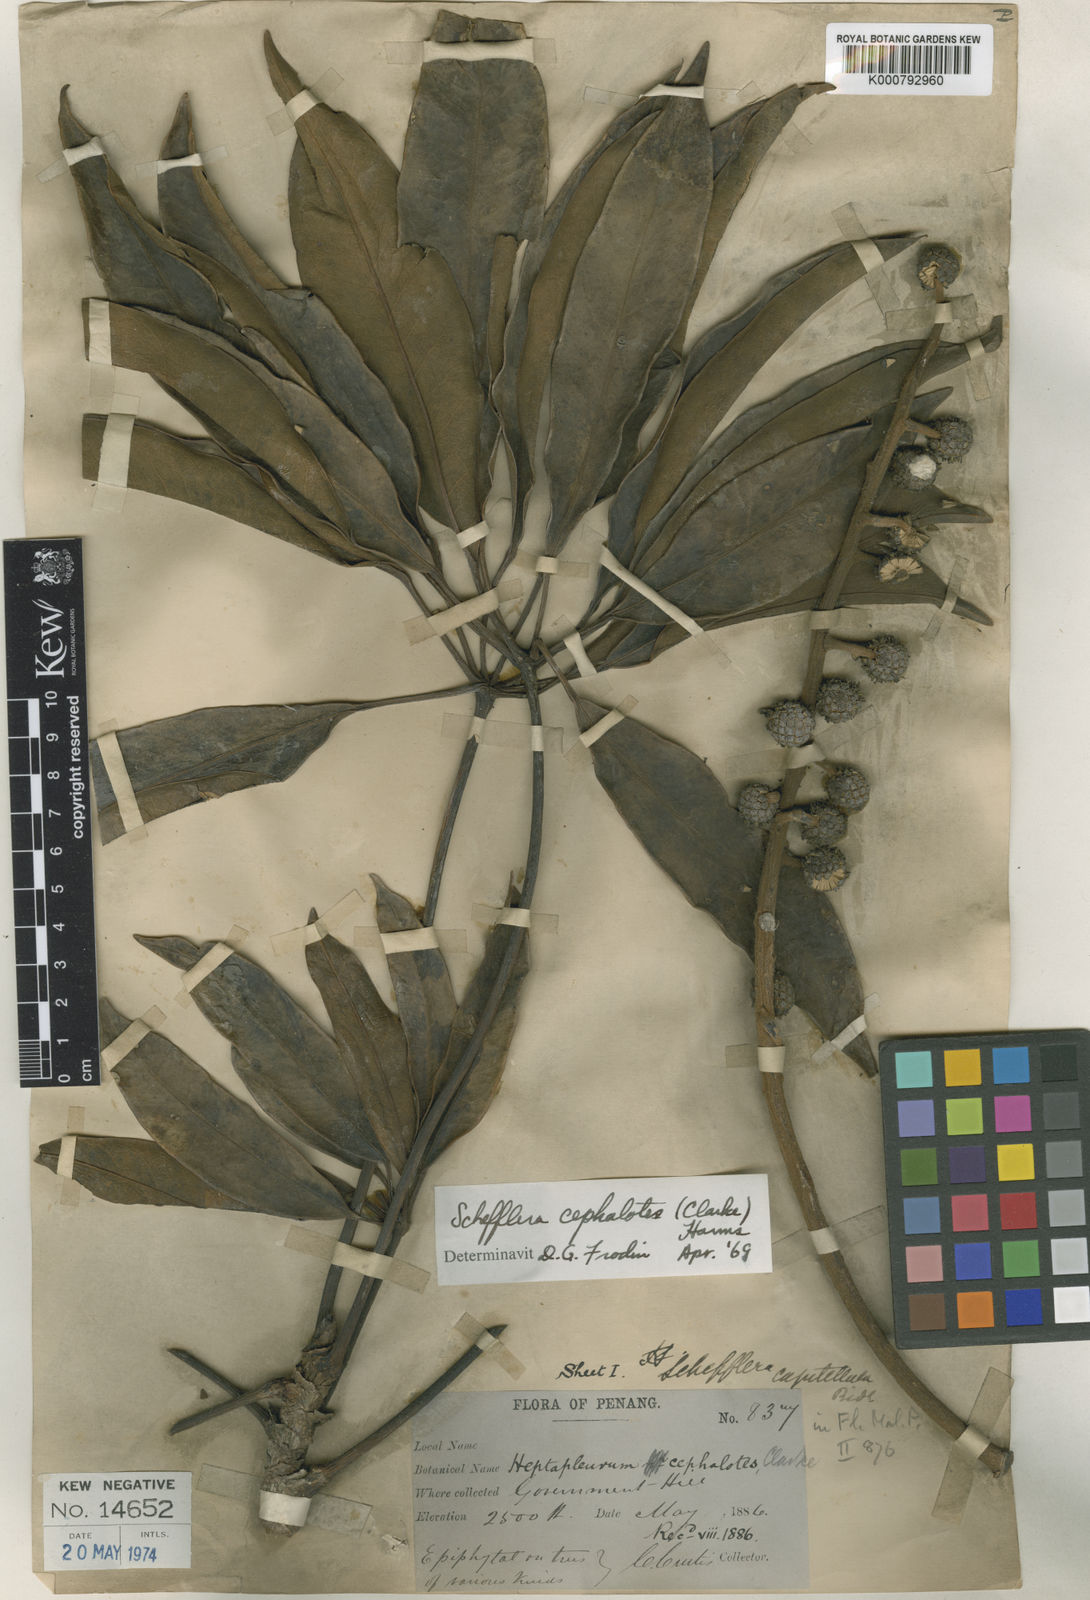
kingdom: Plantae
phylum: Tracheophyta
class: Magnoliopsida
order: Apiales
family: Araliaceae
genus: Heptapleurum
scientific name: Heptapleurum cephalotes
